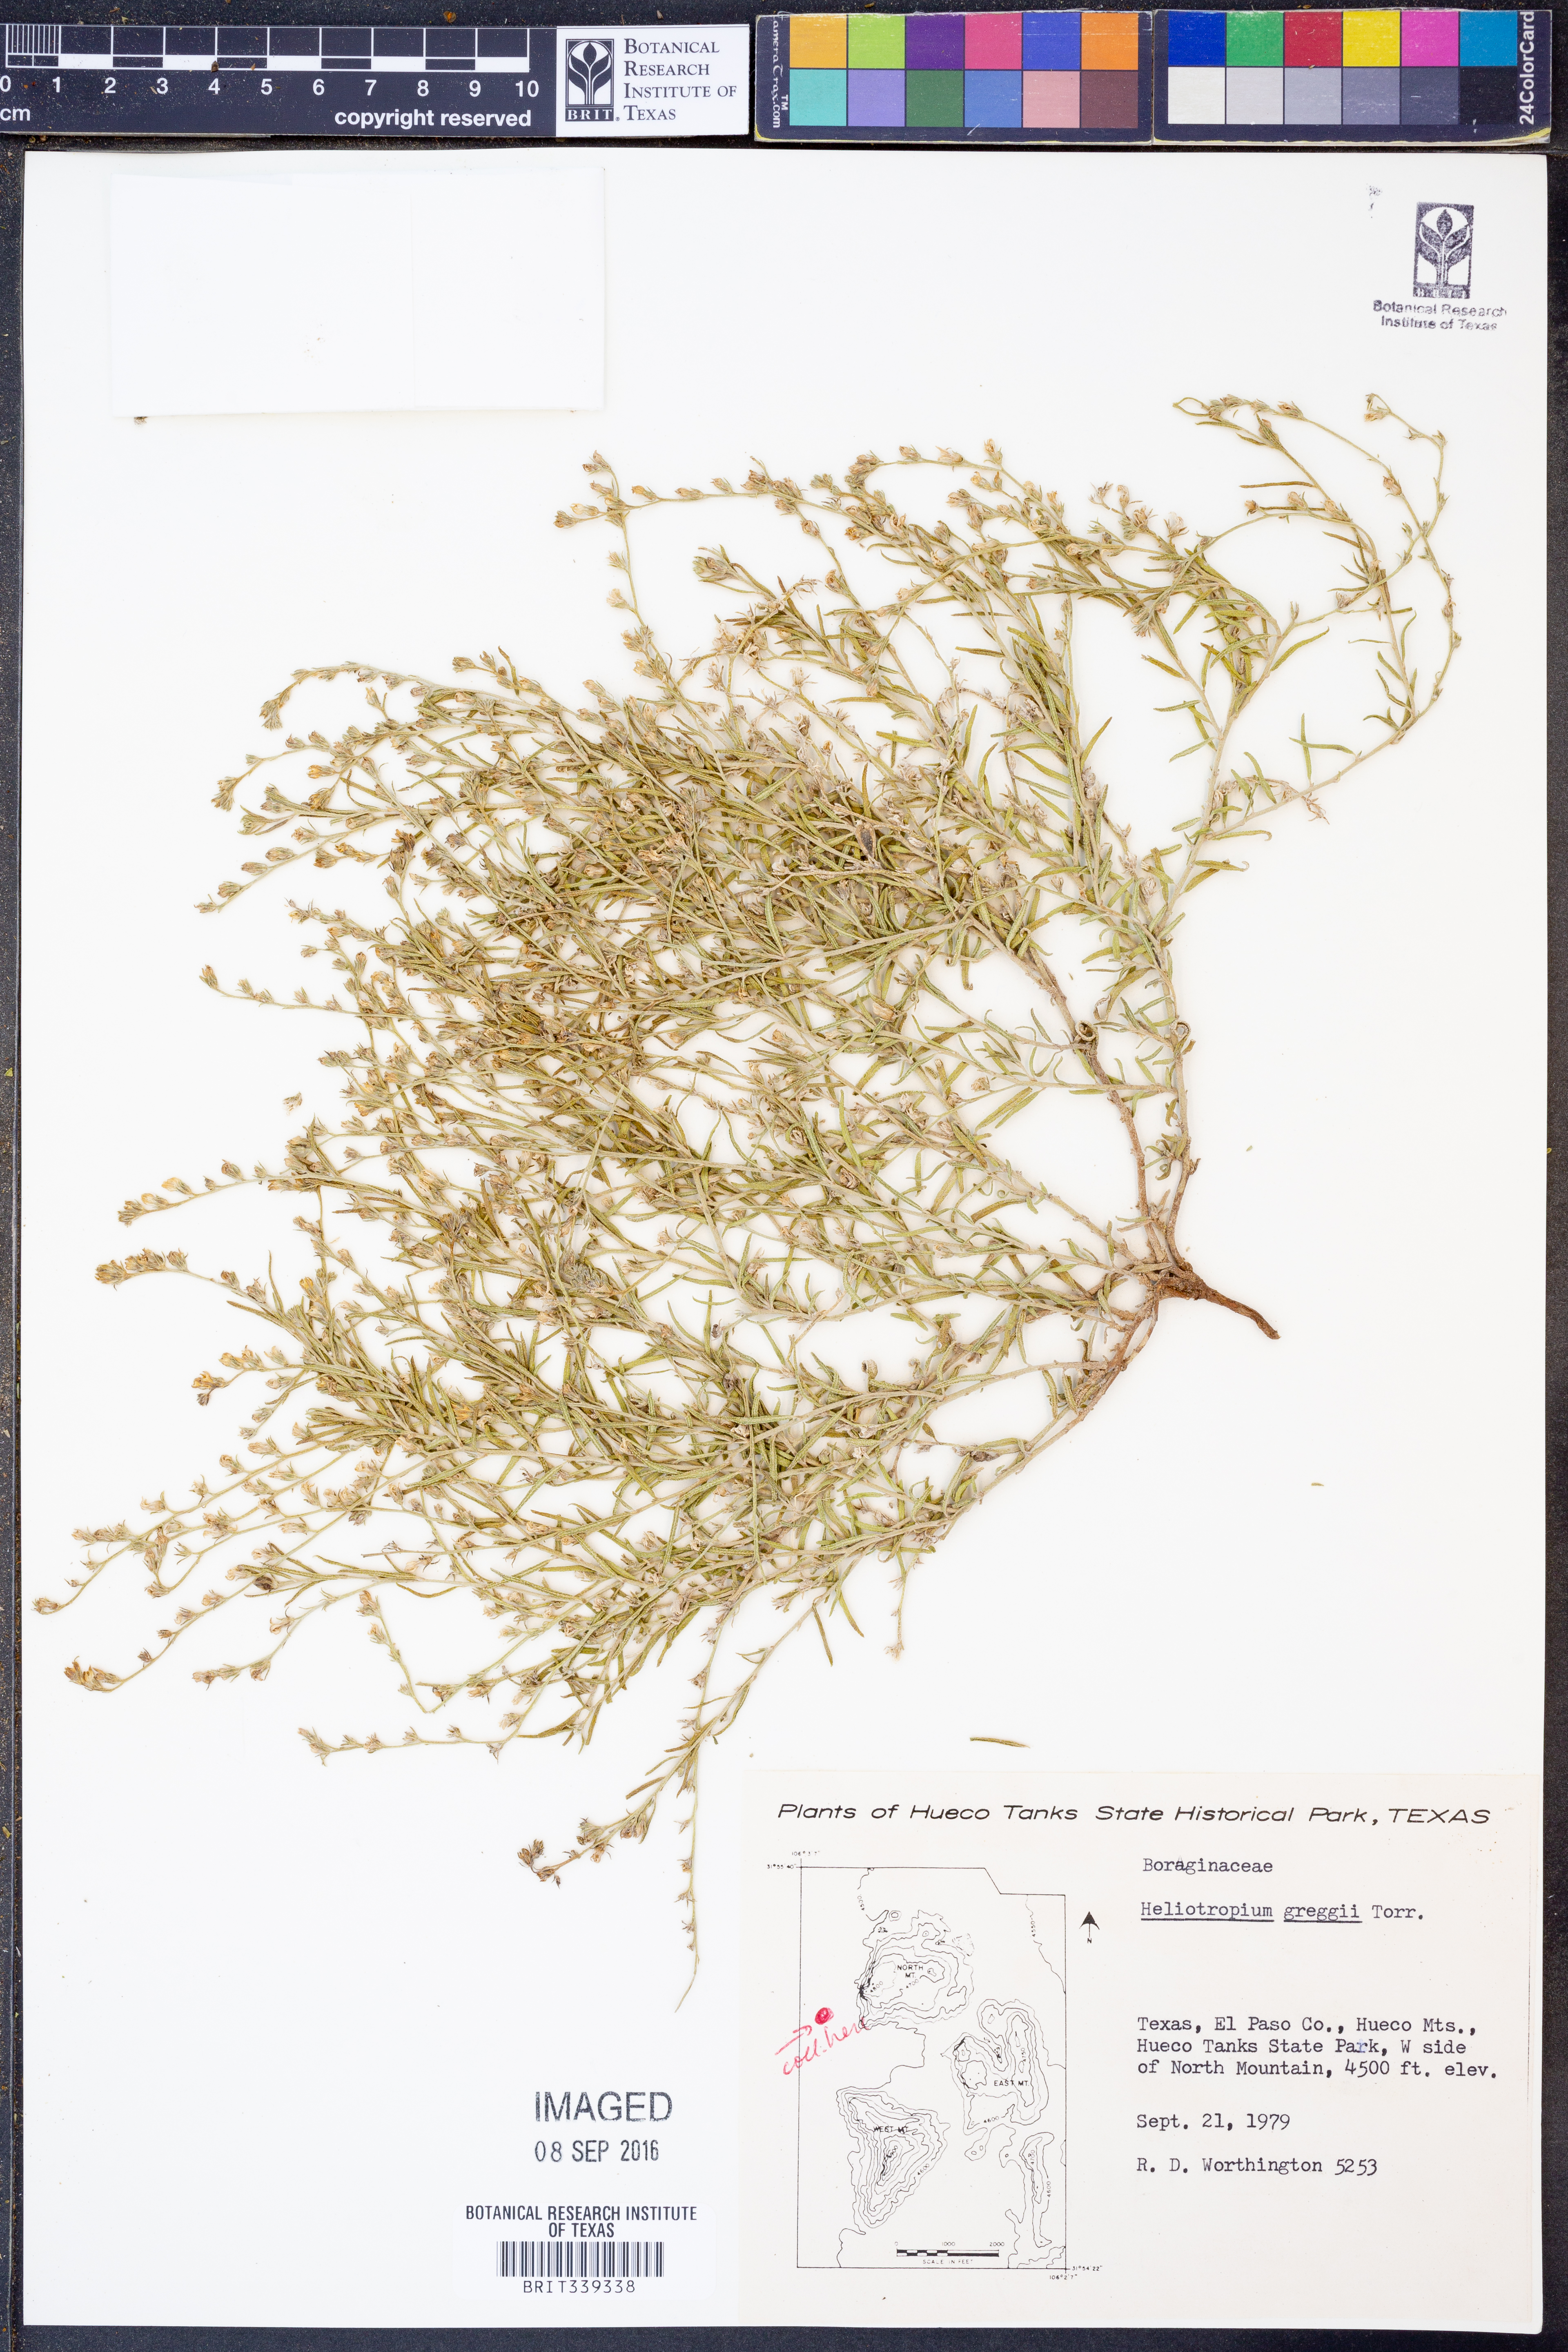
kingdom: Plantae
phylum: Tracheophyta
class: Magnoliopsida
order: Boraginales
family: Heliotropiaceae
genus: Euploca
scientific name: Euploca greggii
